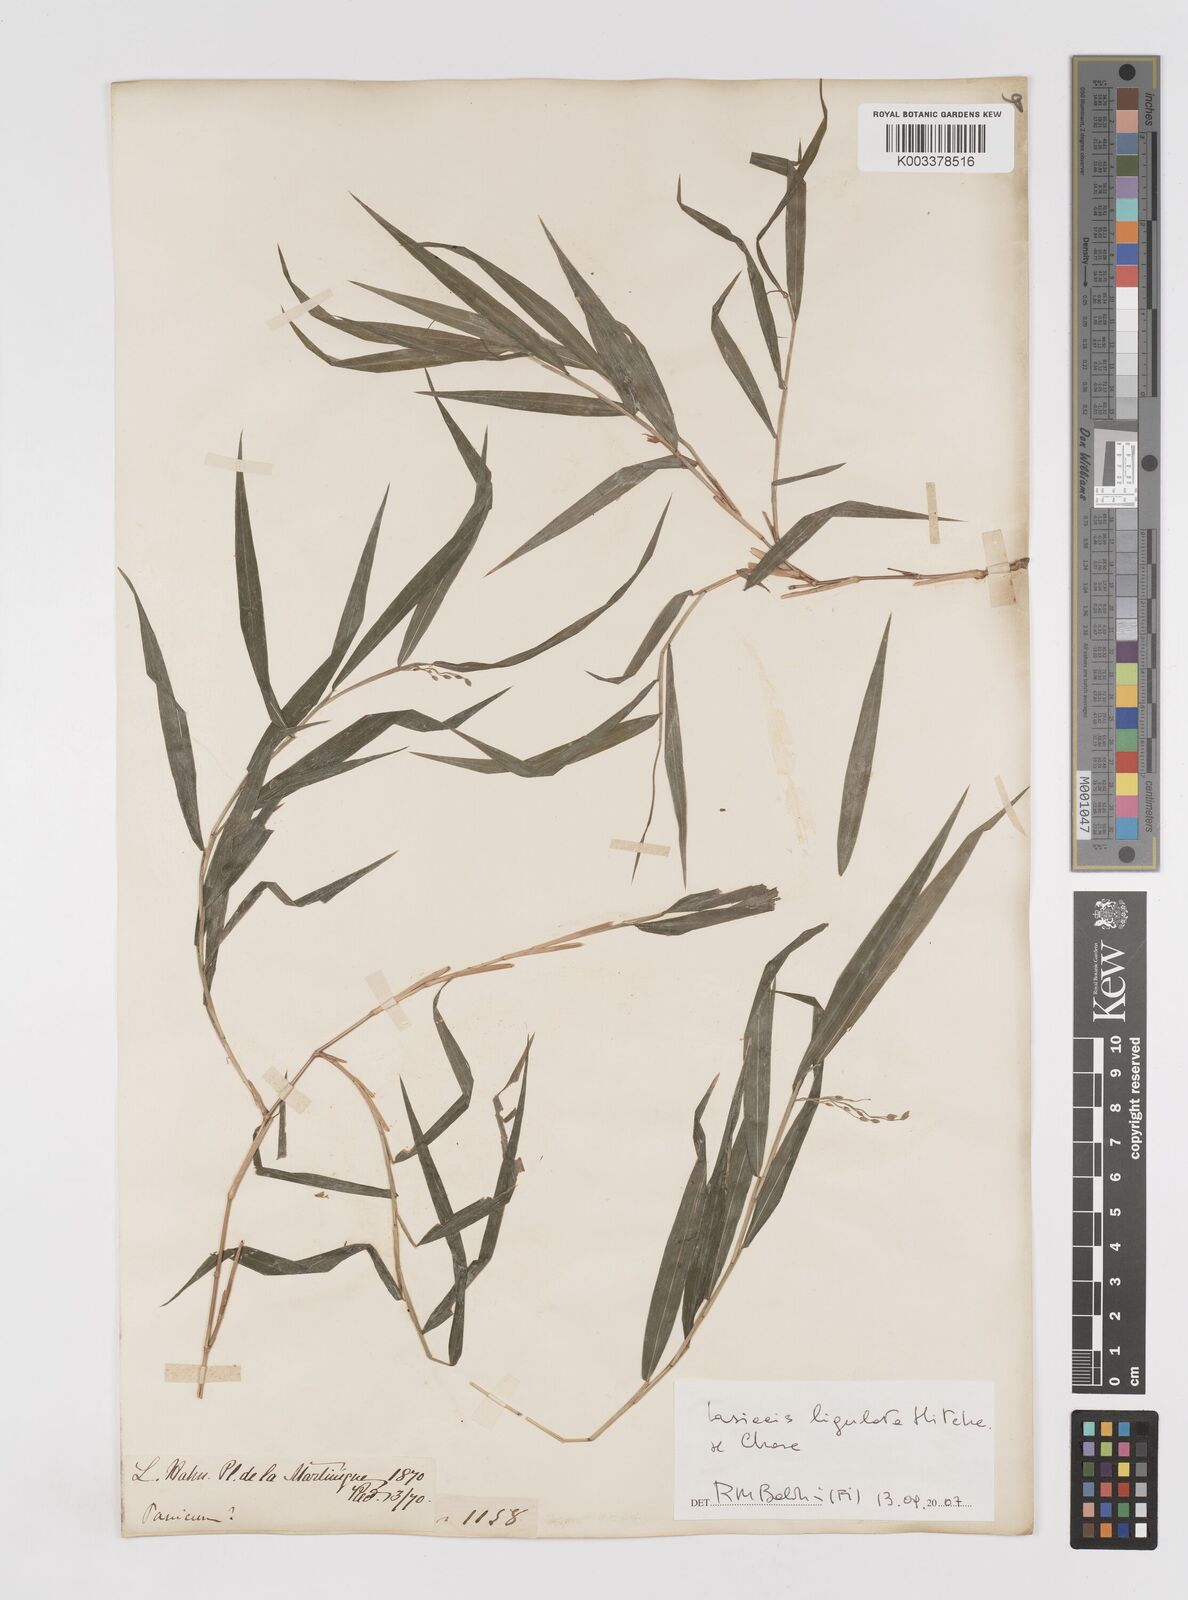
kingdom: Plantae
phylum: Tracheophyta
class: Liliopsida
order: Poales
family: Poaceae
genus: Lasiacis
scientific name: Lasiacis ligulata
